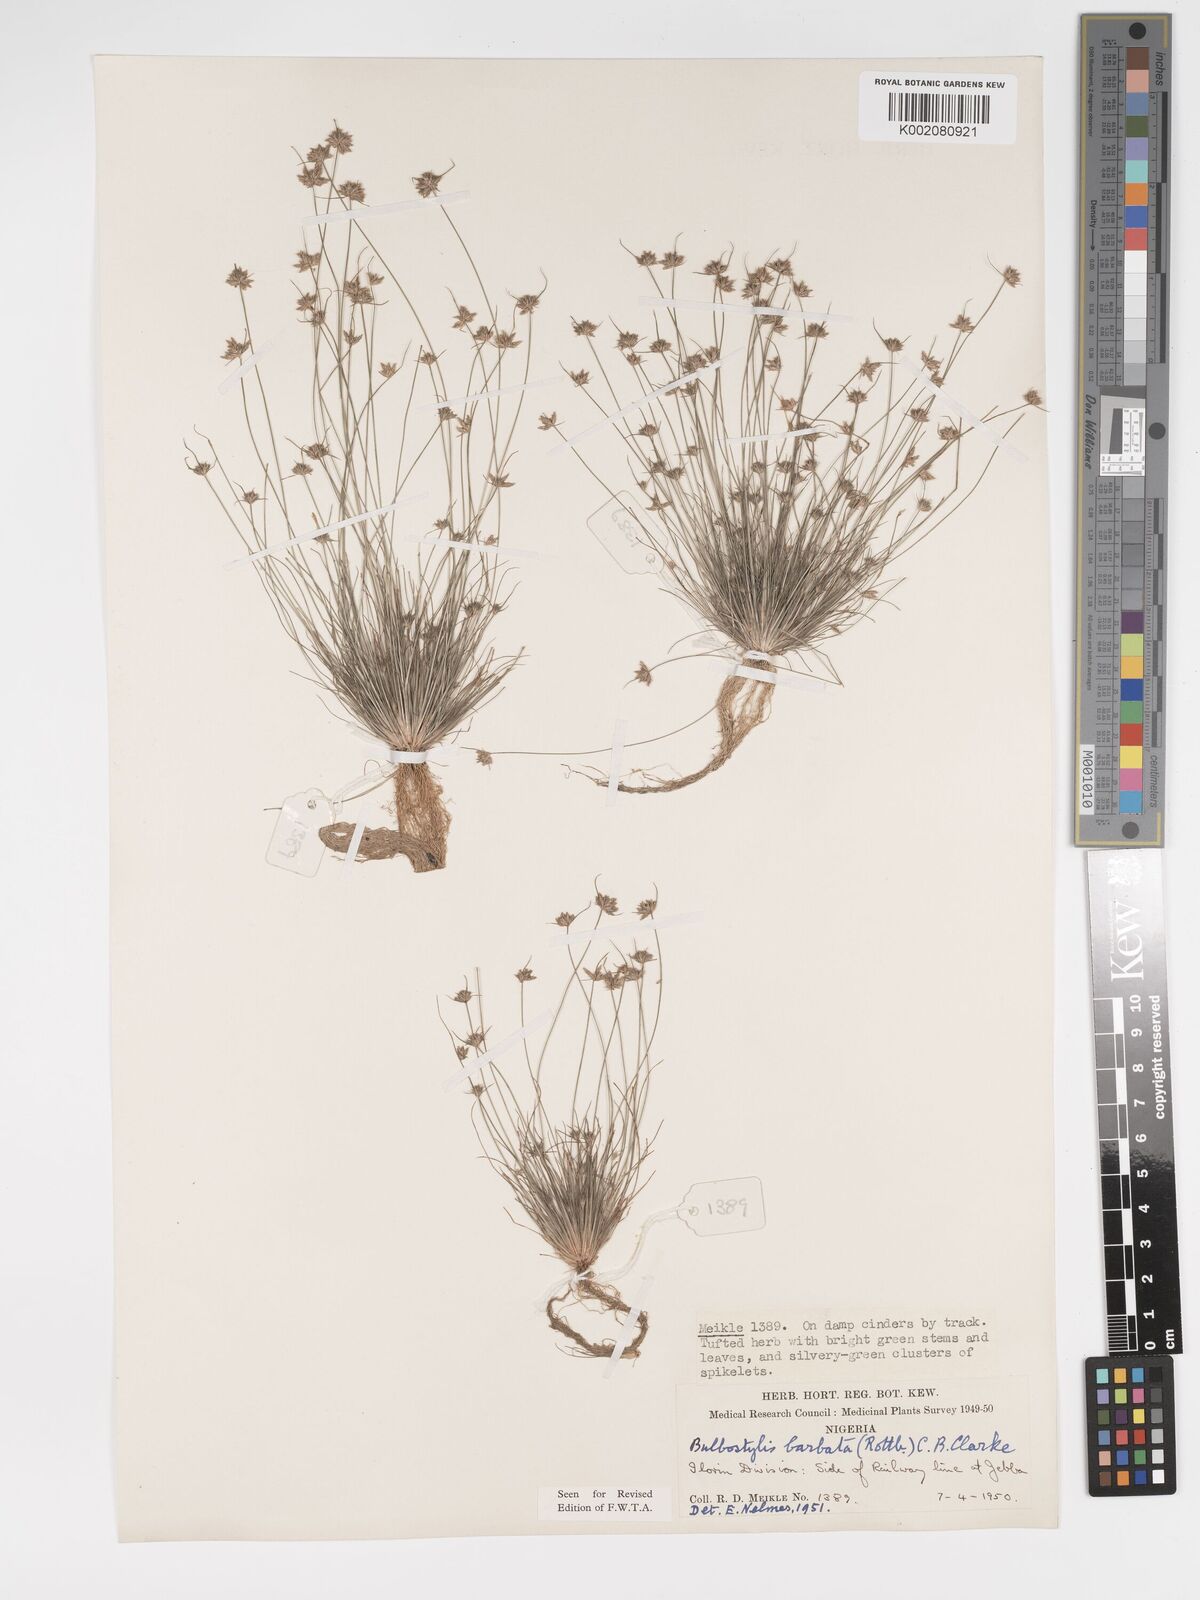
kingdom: Plantae
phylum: Tracheophyta
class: Liliopsida
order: Poales
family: Cyperaceae
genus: Bulbostylis
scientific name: Bulbostylis barbata
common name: Watergrass
